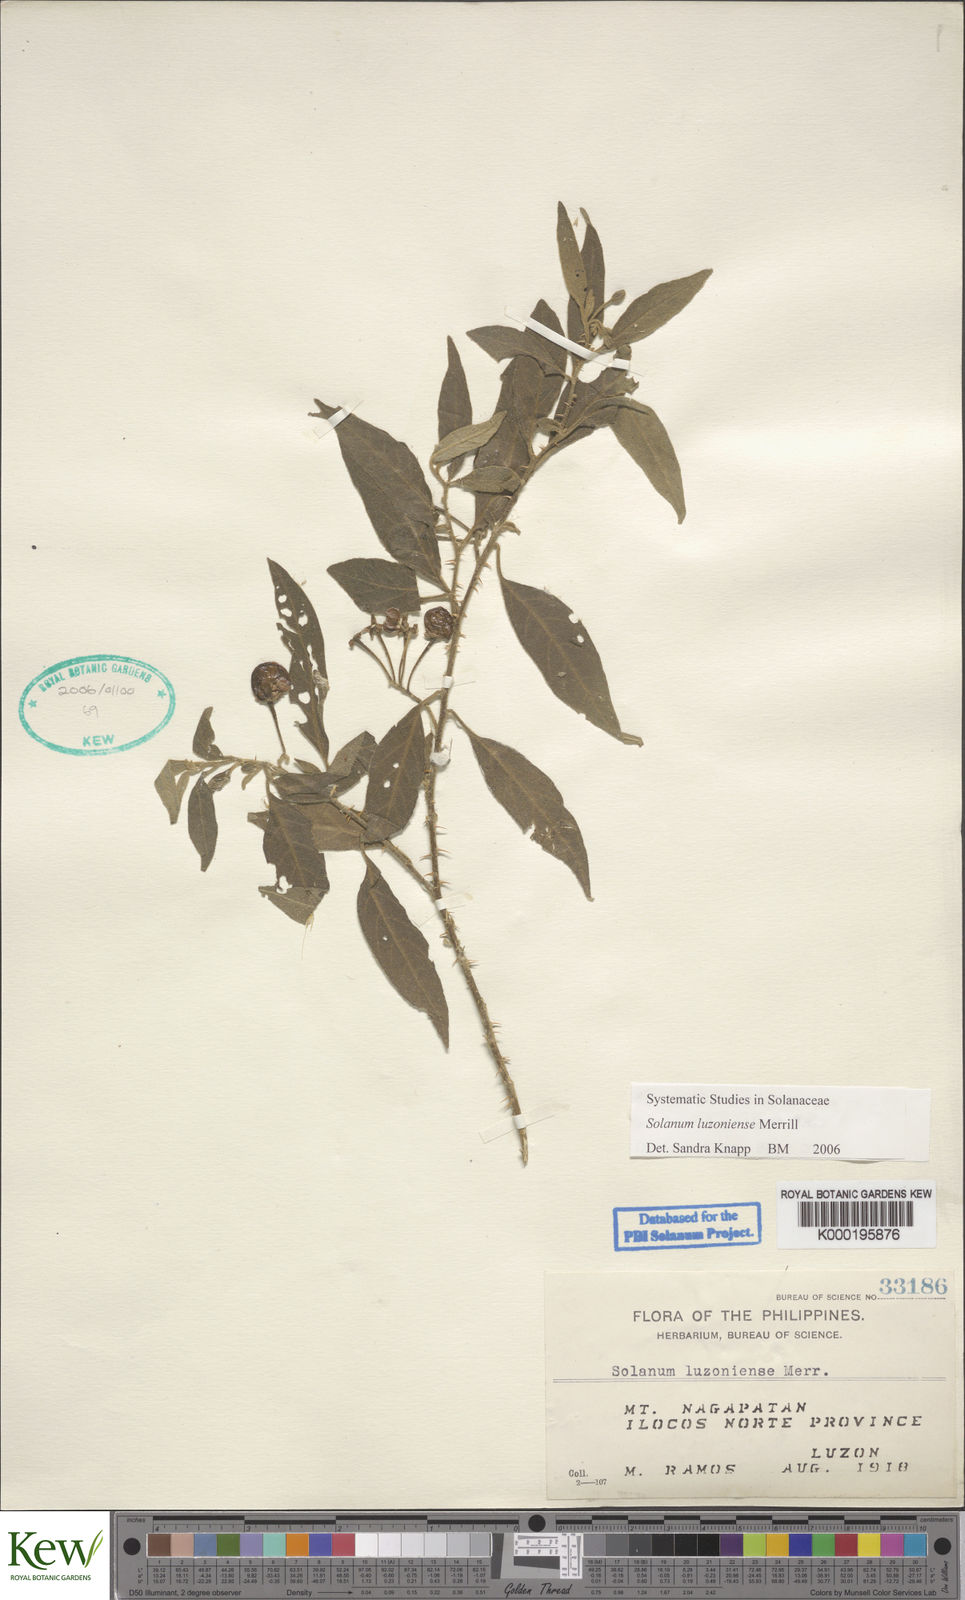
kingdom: Plantae
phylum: Tracheophyta
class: Magnoliopsida
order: Solanales
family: Solanaceae
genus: Solanum
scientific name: Solanum retrorsum
